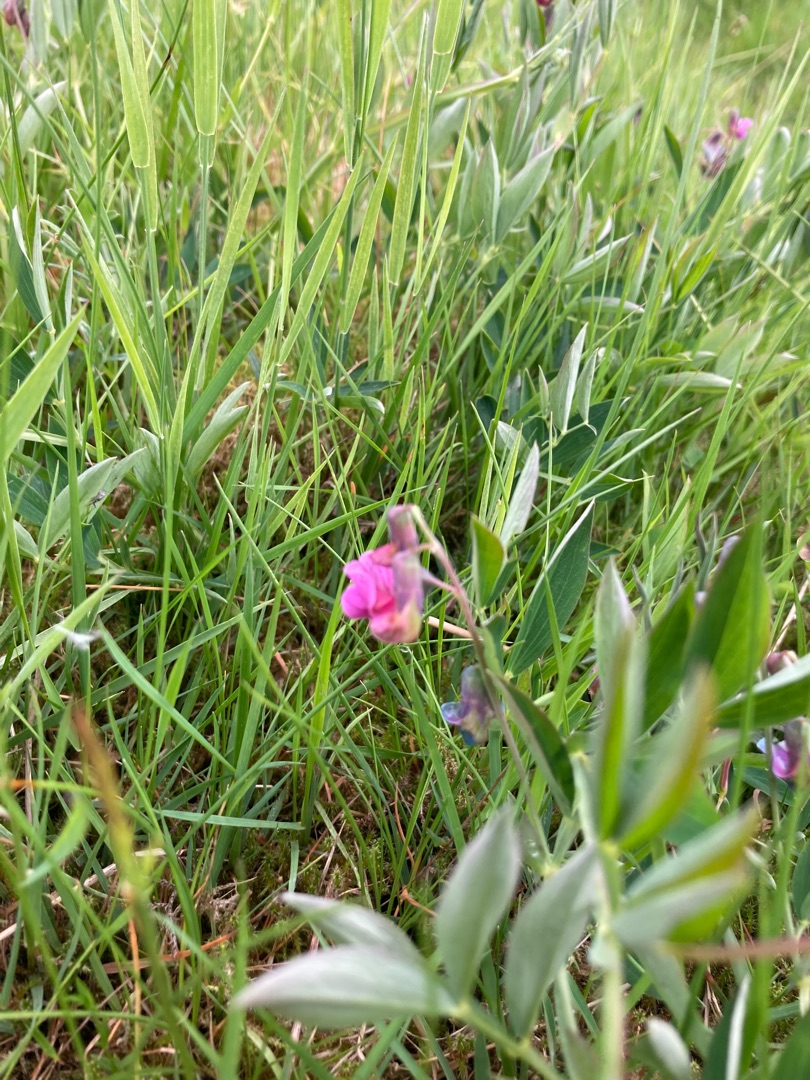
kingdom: Plantae
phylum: Tracheophyta
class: Magnoliopsida
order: Fabales
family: Fabaceae
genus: Lathyrus
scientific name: Lathyrus linifolius
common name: Krat-fladbælg
